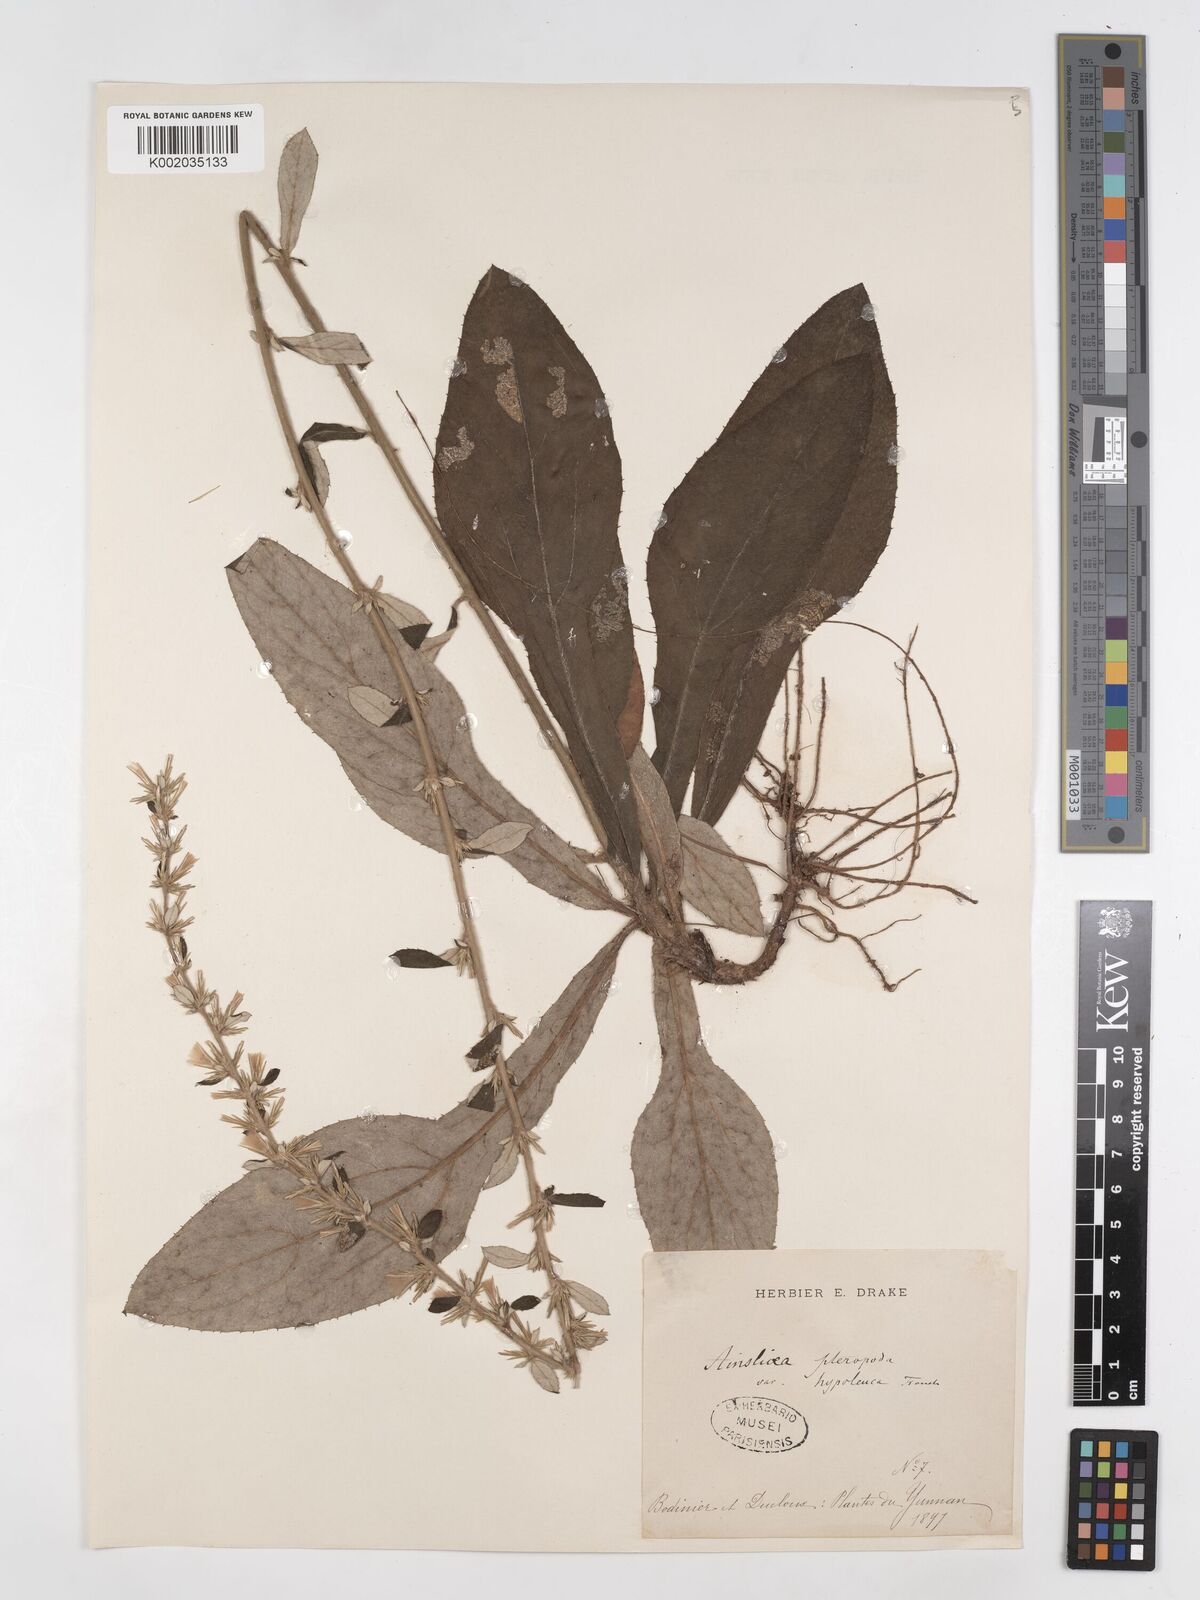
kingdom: Plantae
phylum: Tracheophyta
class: Magnoliopsida
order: Asterales
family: Asteraceae
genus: Ainsliaea
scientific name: Ainsliaea latifolia
